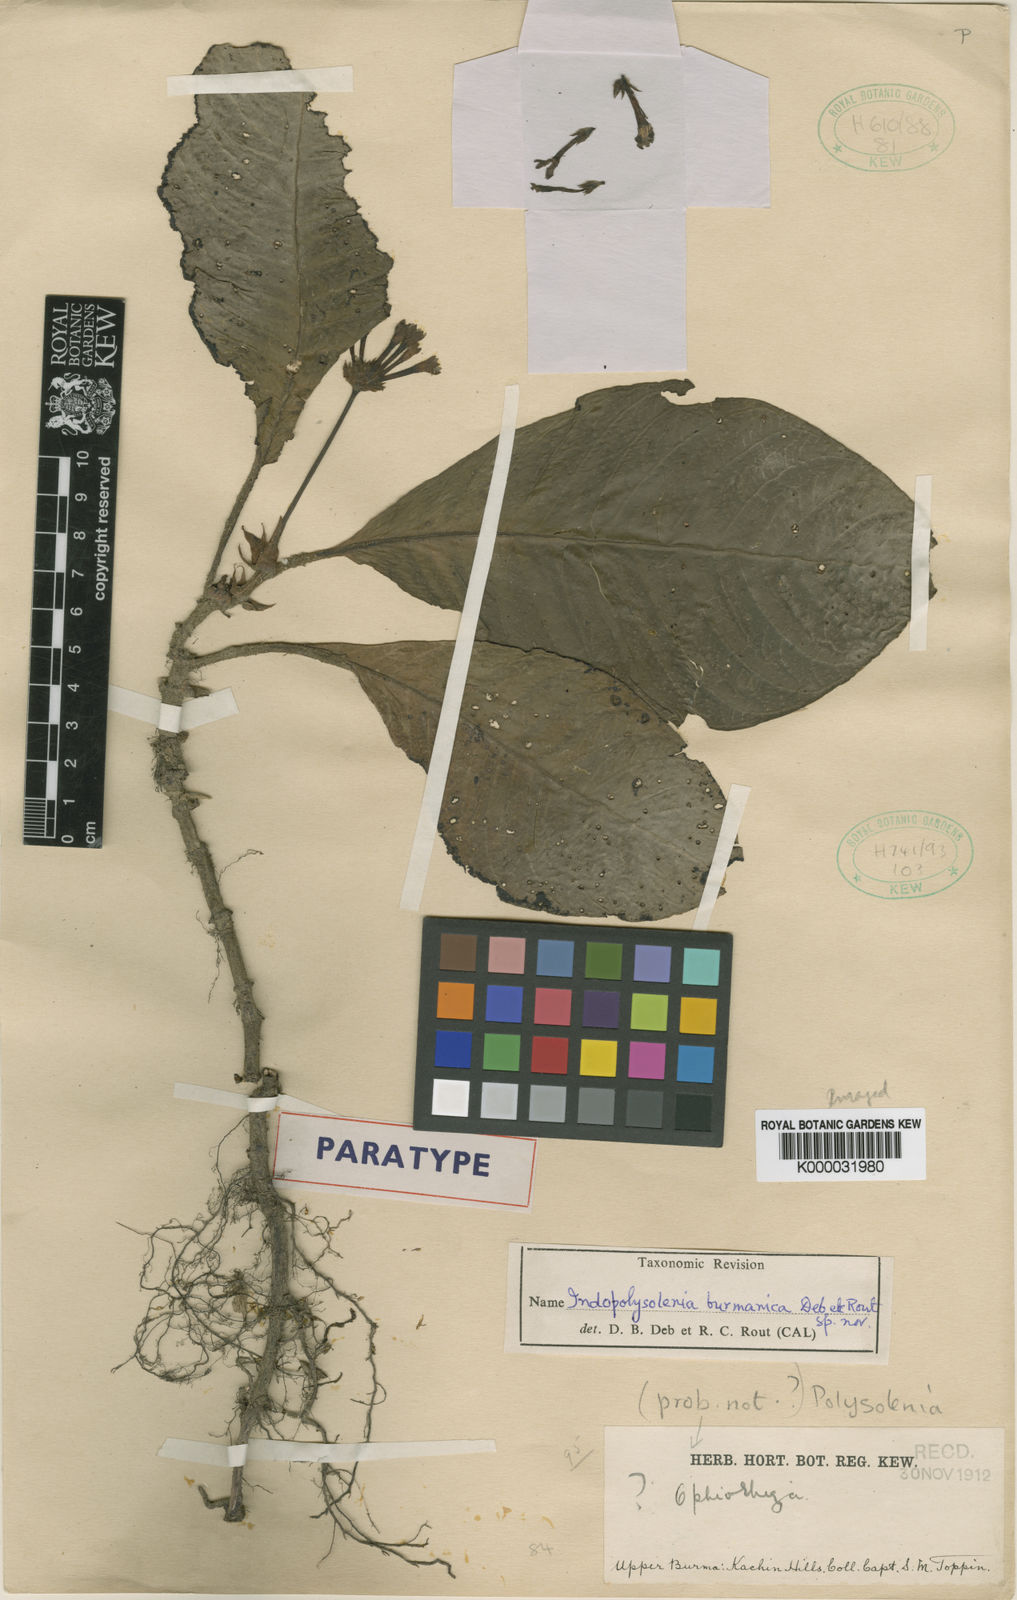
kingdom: Plantae
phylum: Tracheophyta
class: Magnoliopsida
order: Gentianales
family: Rubiaceae
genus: Leptomischus
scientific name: Leptomischus primuloides
